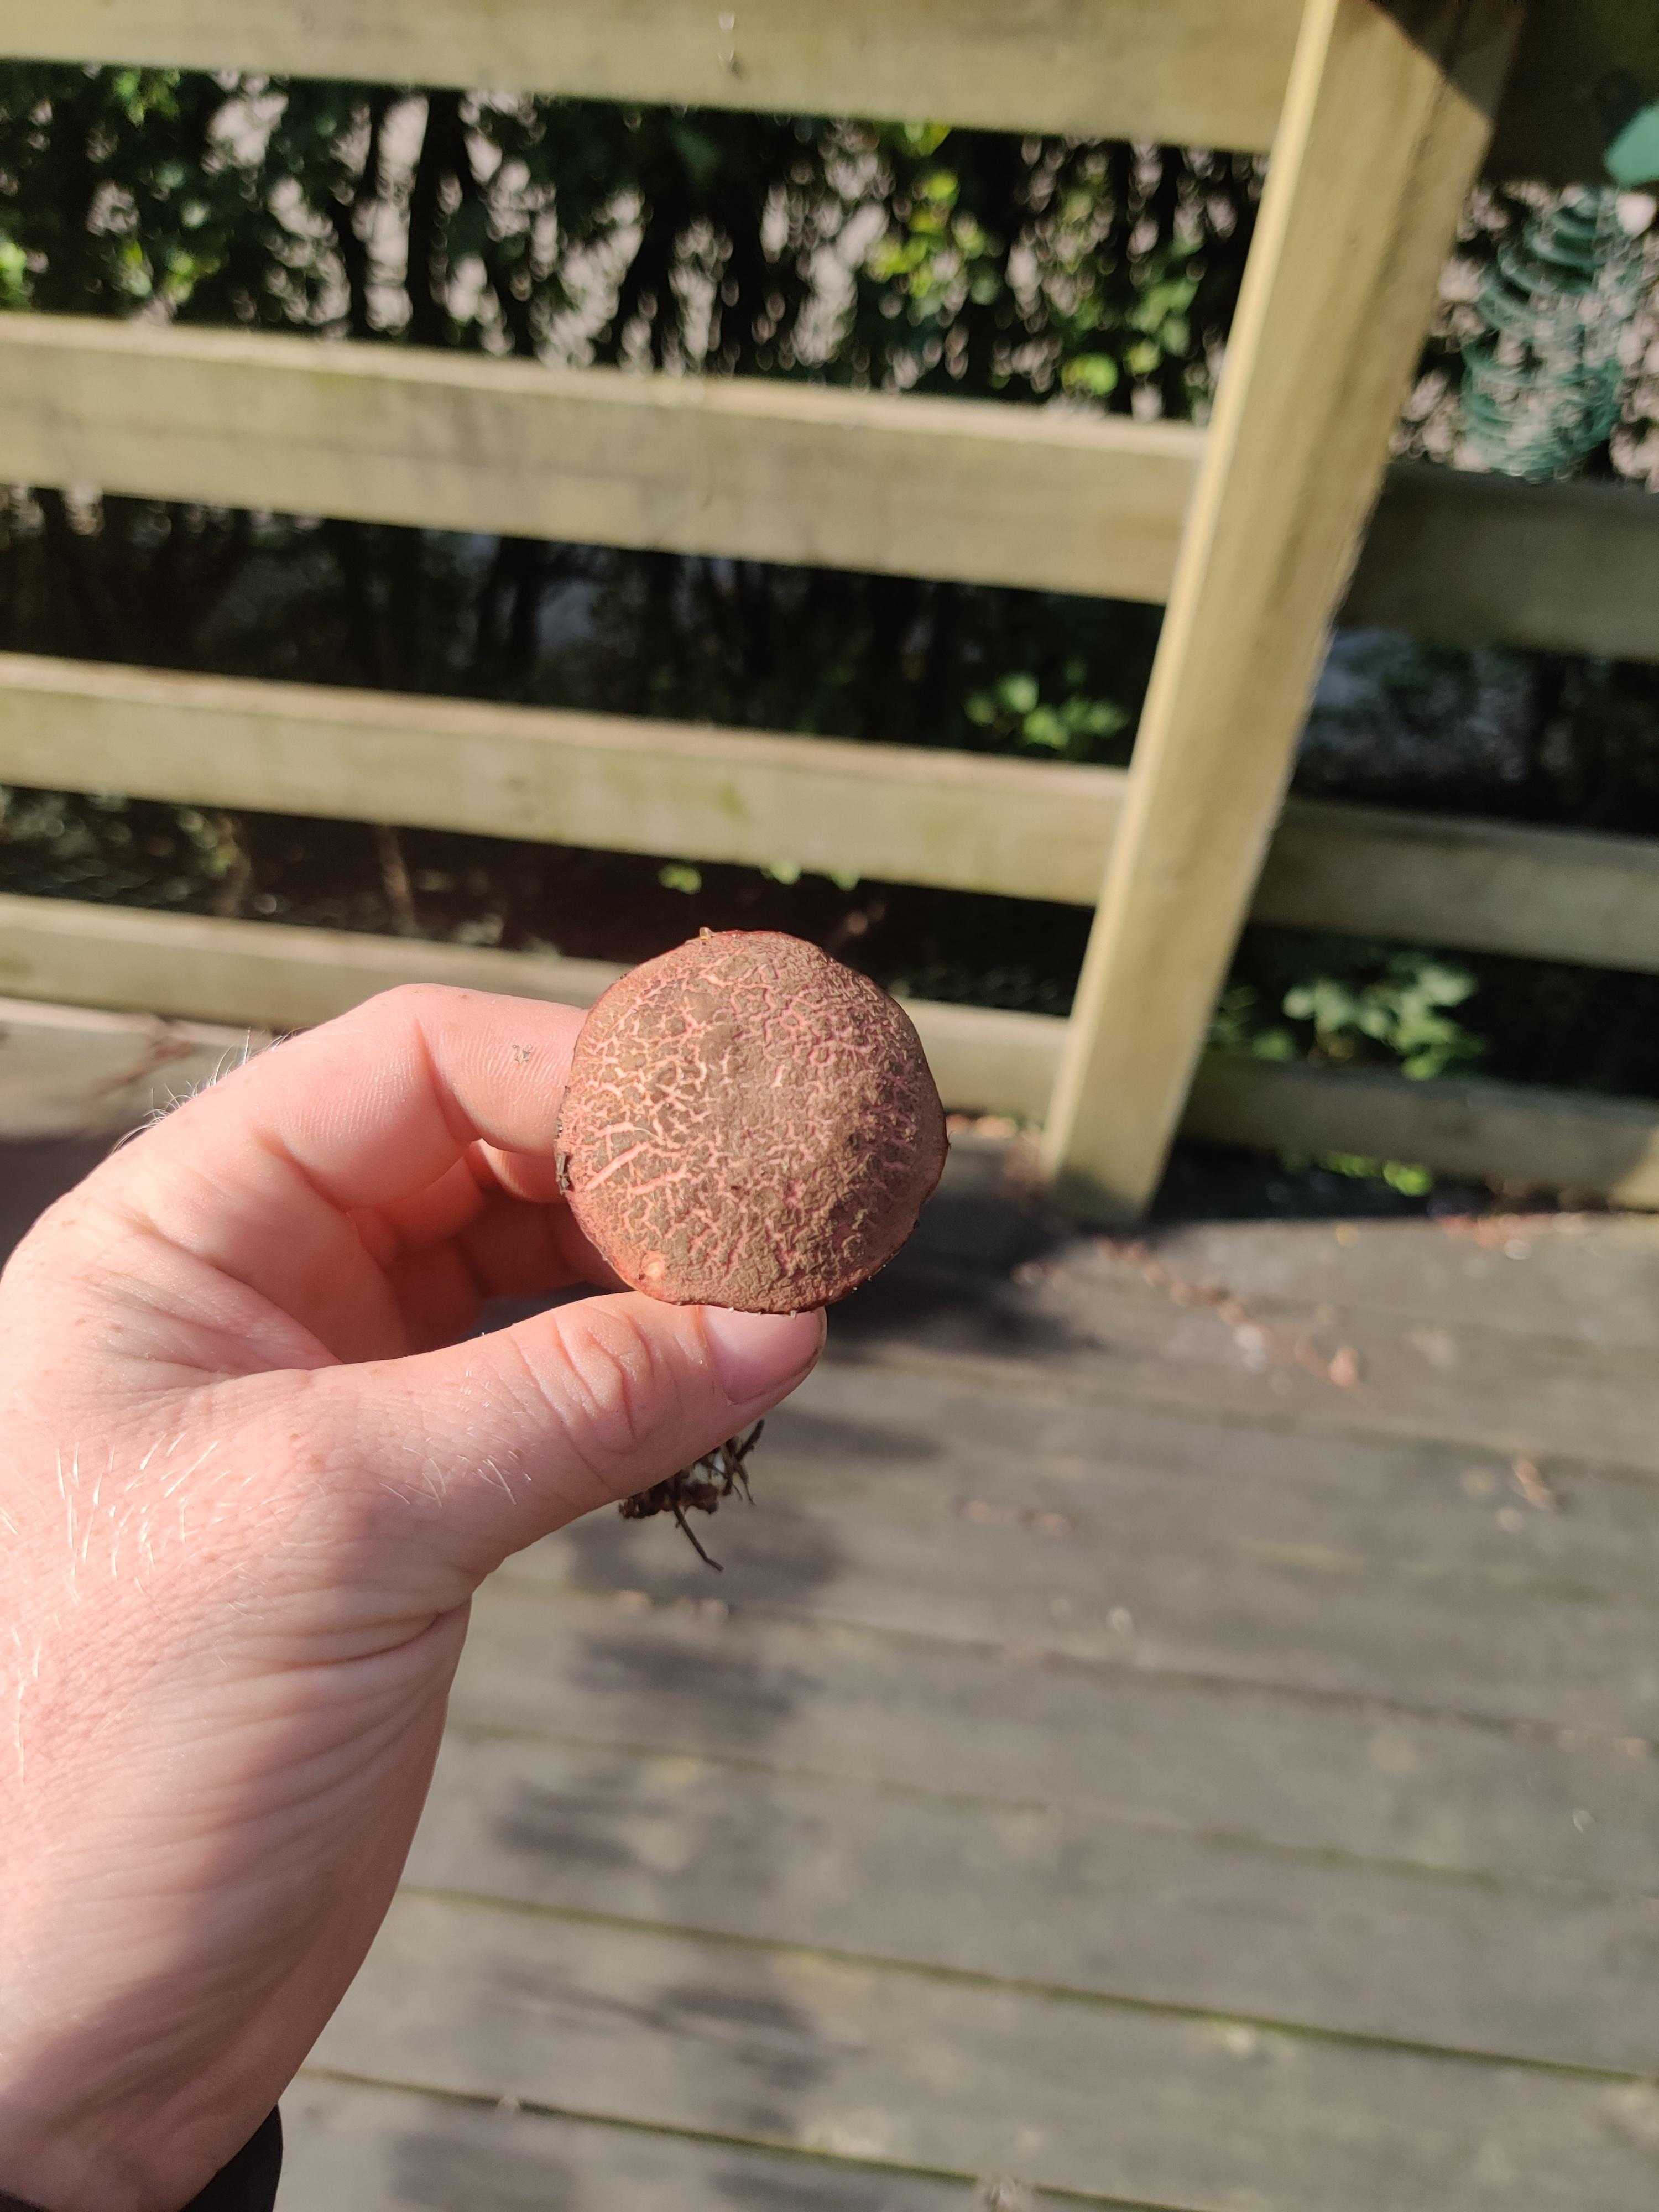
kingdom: Fungi
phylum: Basidiomycota
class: Agaricomycetes
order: Boletales
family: Boletaceae
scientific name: Boletaceae
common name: rørhatfamilien
